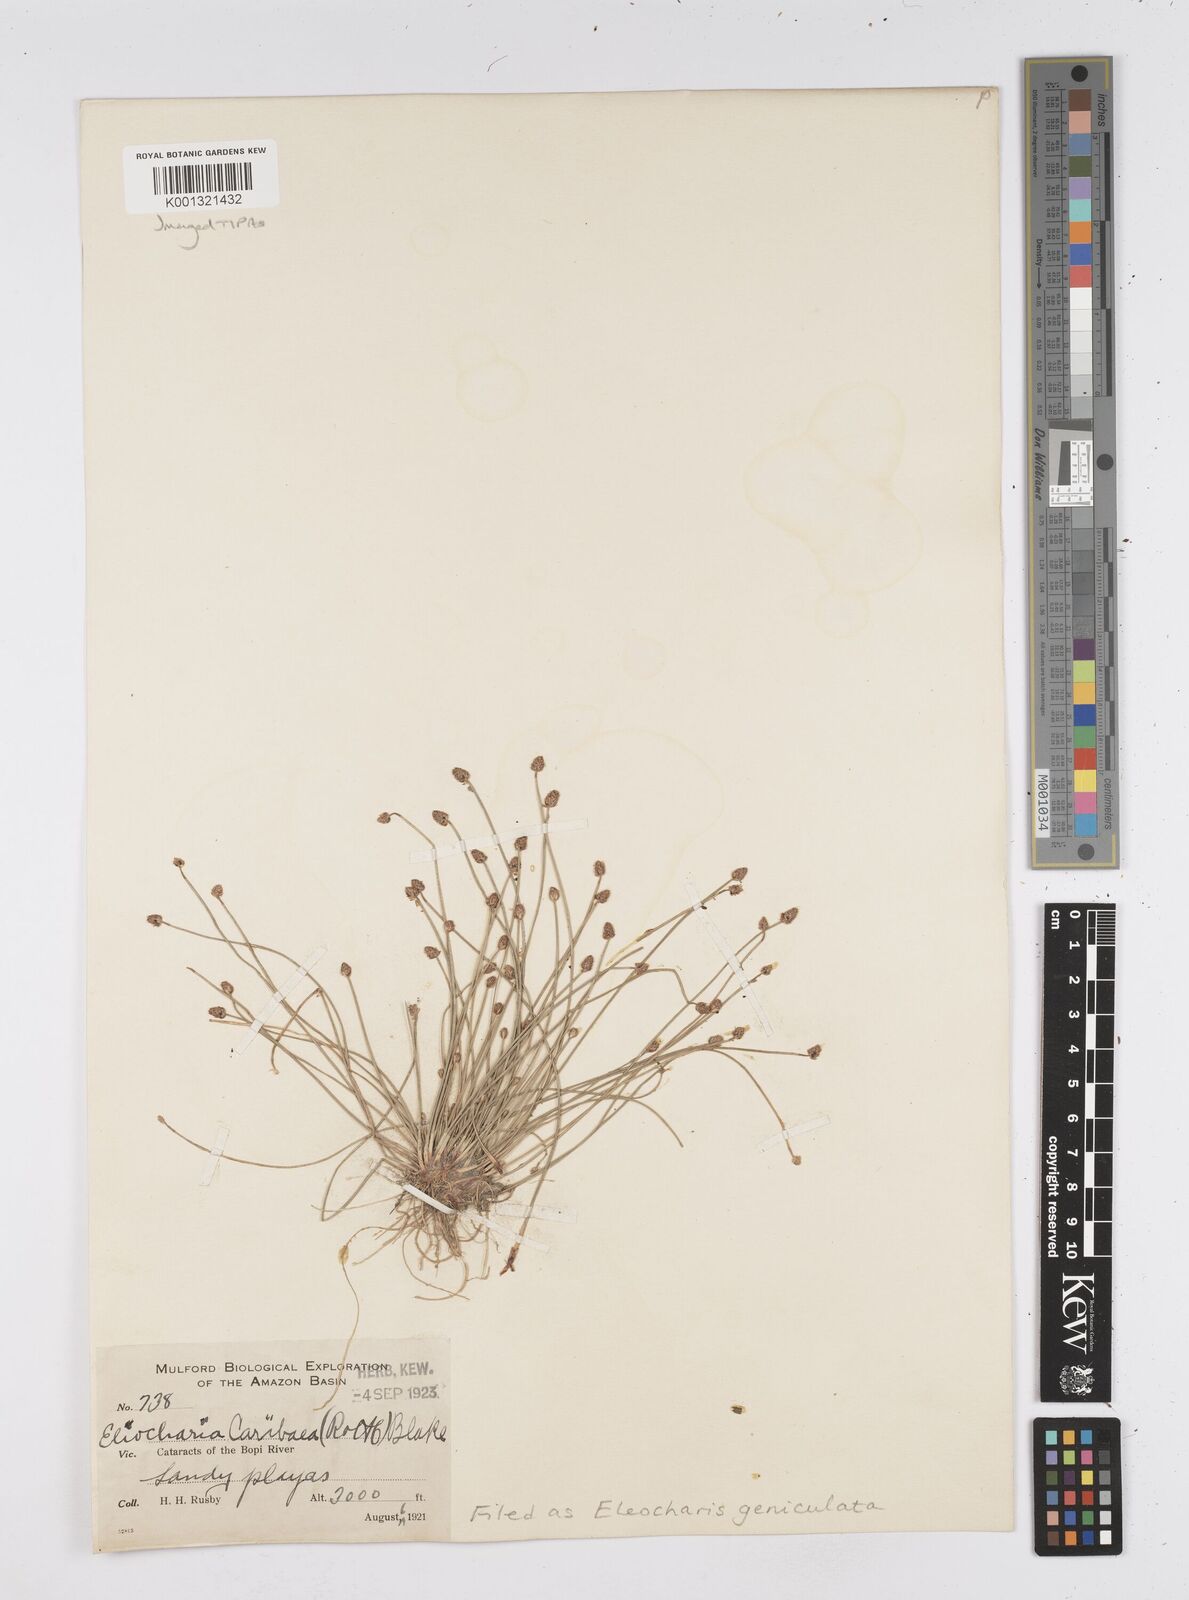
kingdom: Plantae
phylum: Tracheophyta
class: Liliopsida
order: Poales
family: Cyperaceae
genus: Eleocharis
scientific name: Eleocharis geniculata
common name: Canada spikesedge
